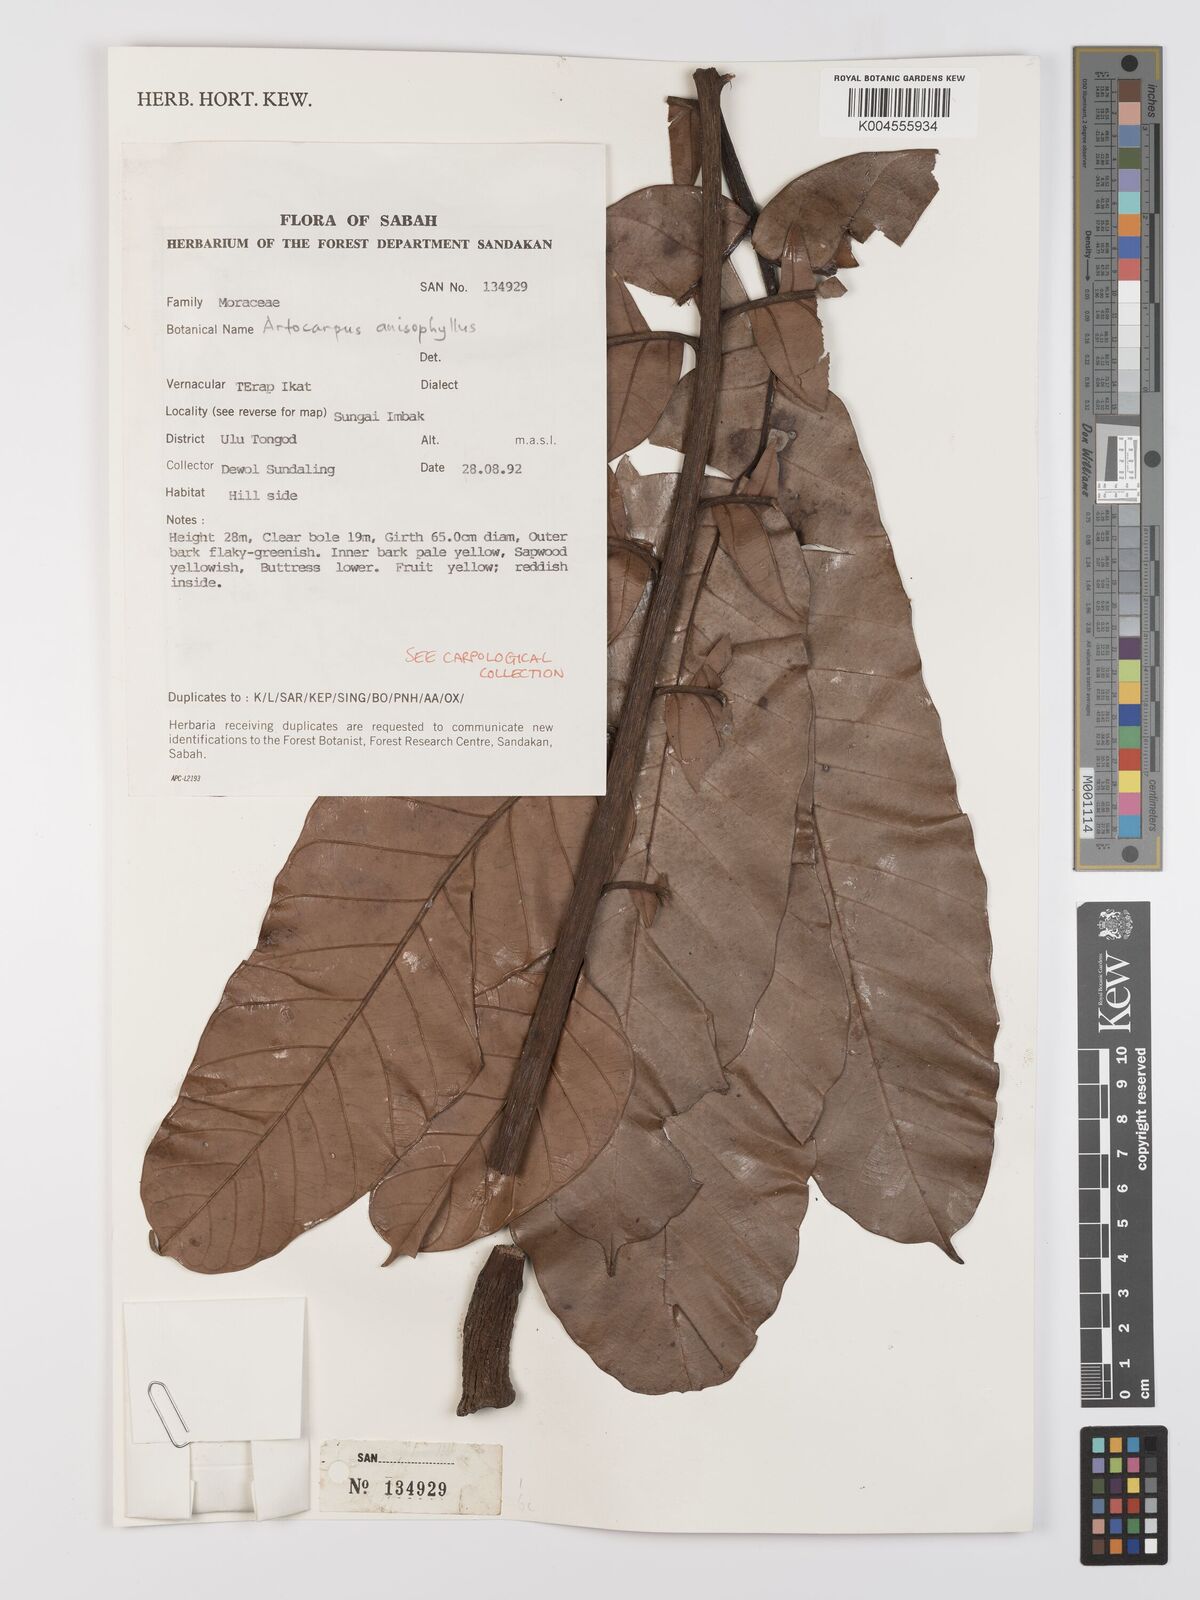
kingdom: Plantae
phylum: Tracheophyta
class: Magnoliopsida
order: Rosales
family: Moraceae
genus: Artocarpus
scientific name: Artocarpus anisophyllus
